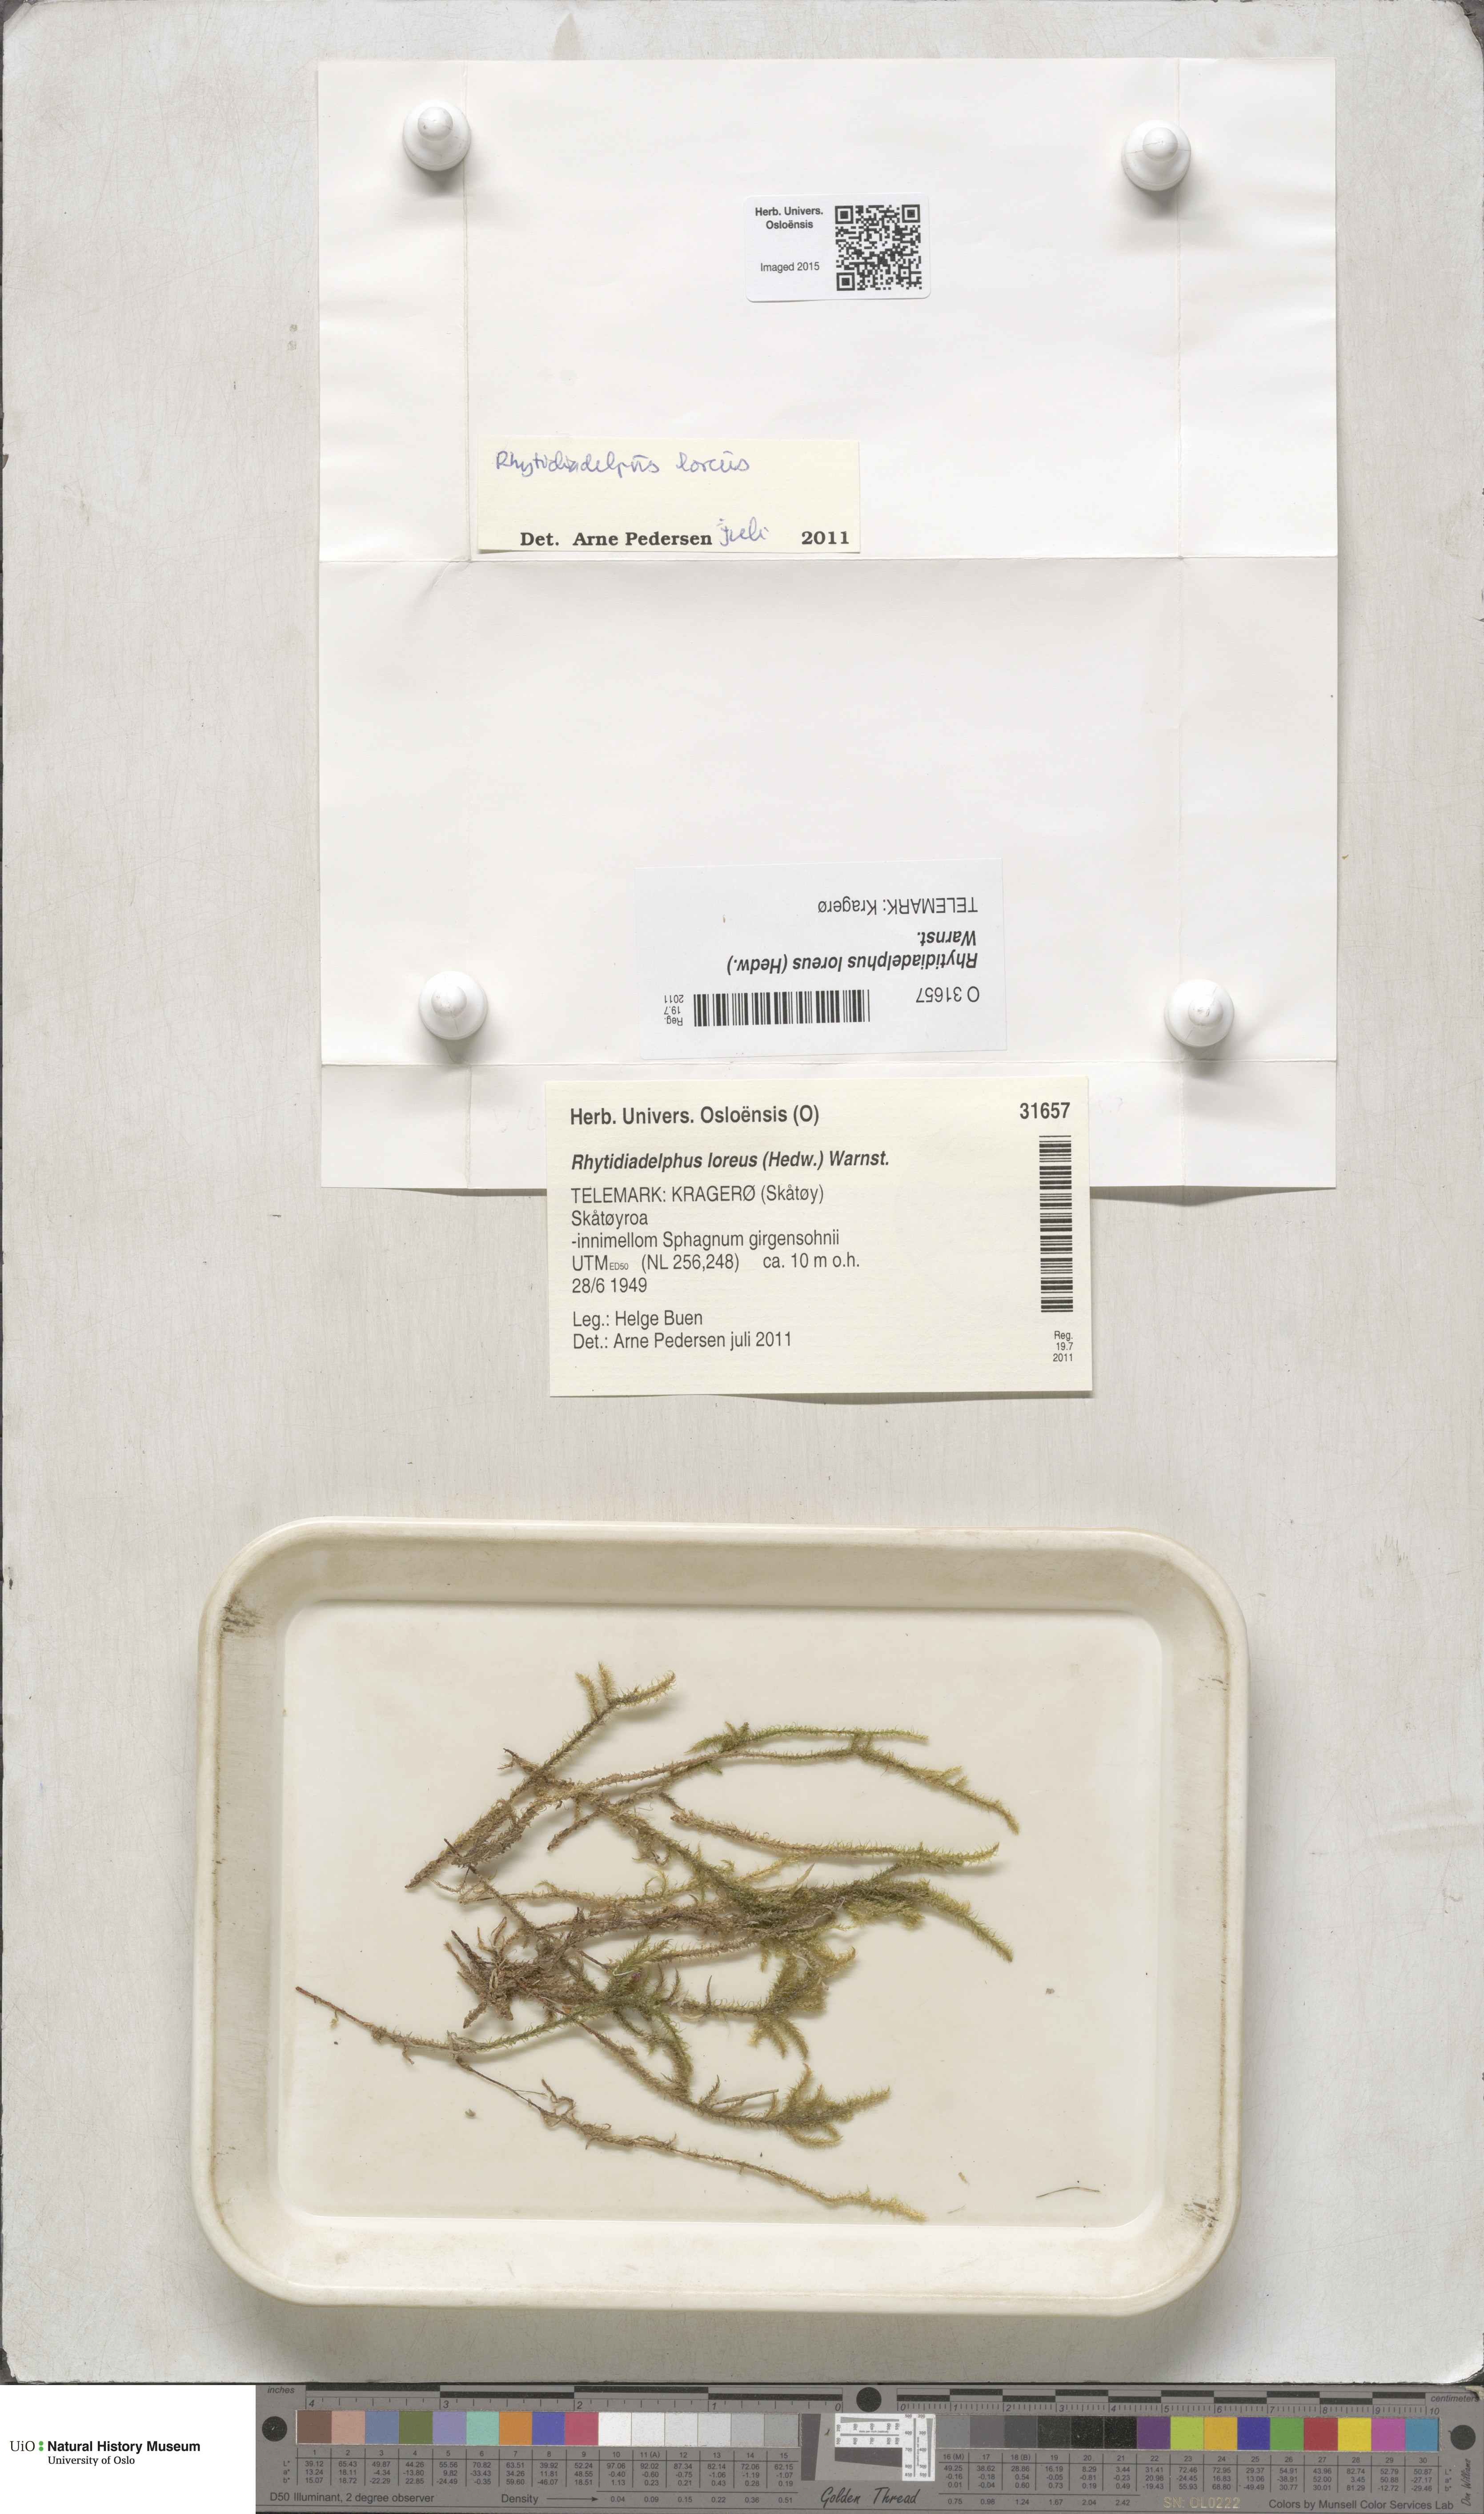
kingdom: Plantae
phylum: Bryophyta
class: Bryopsida
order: Hypnales
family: Hylocomiaceae
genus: Rhytidiadelphus
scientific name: Rhytidiadelphus loreus
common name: Lanky moss
